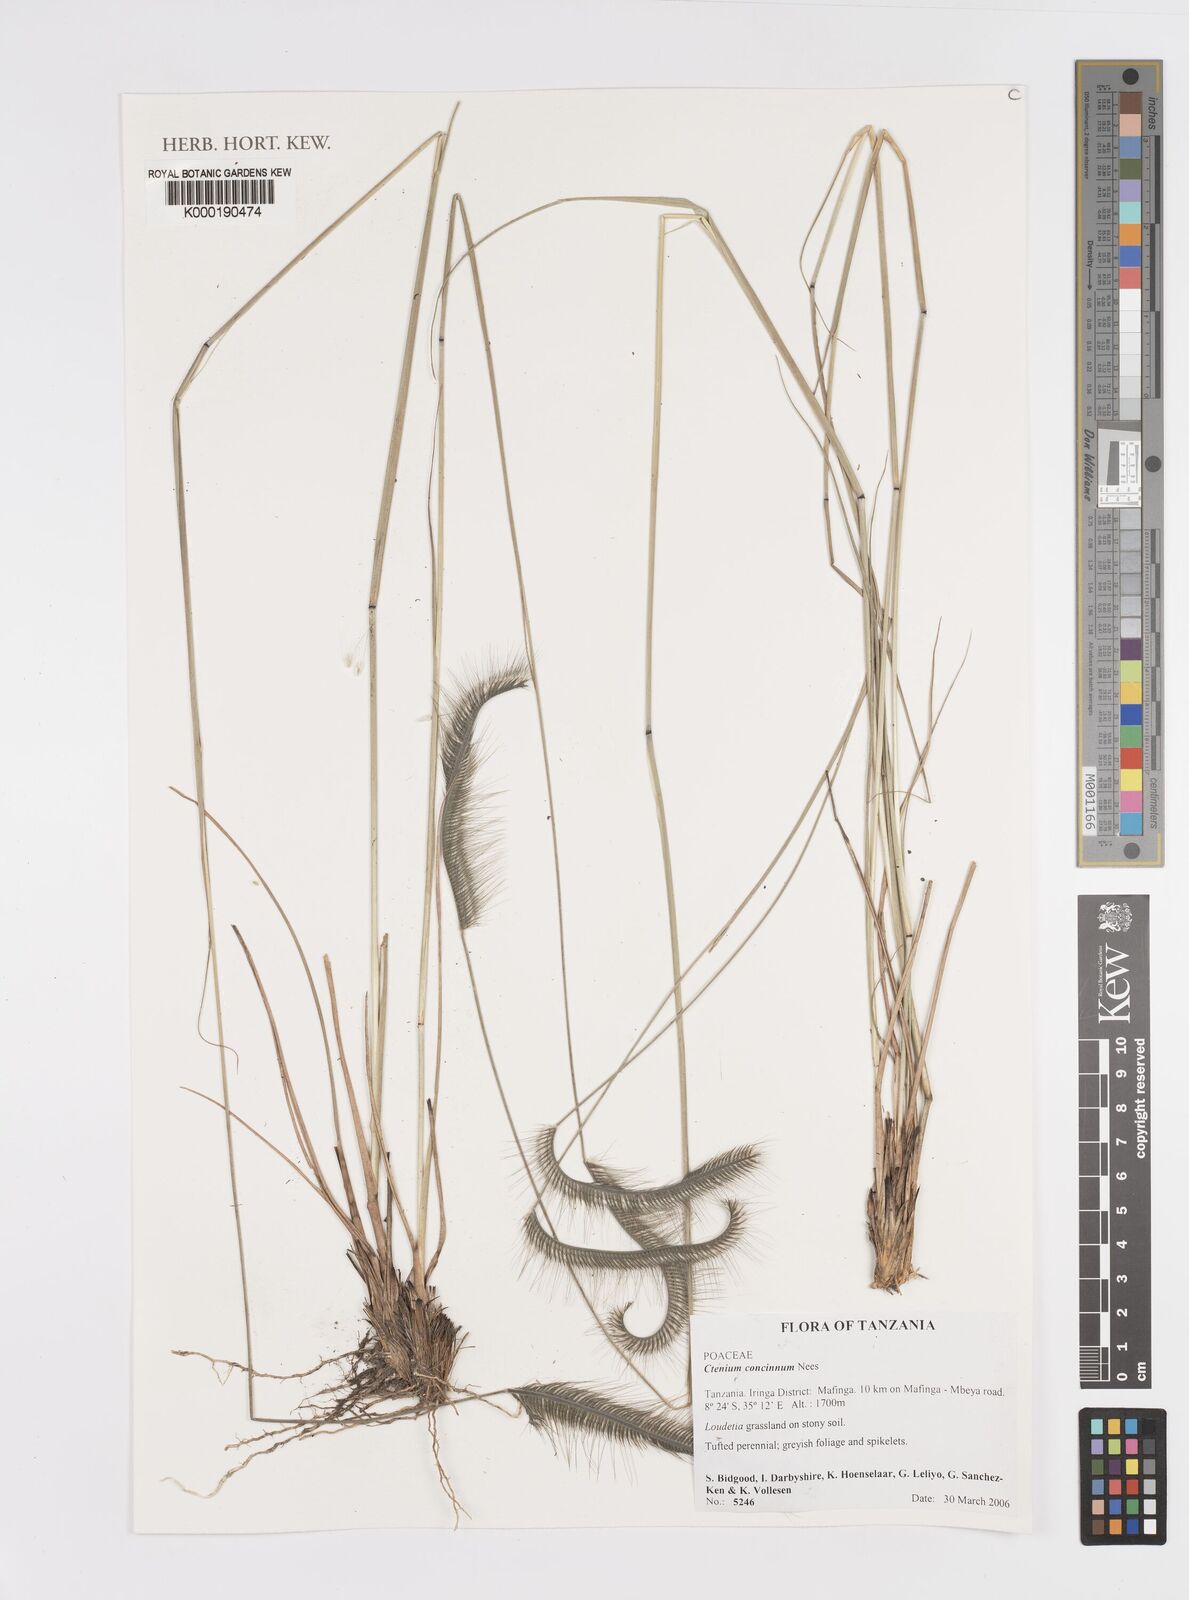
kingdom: Plantae
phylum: Tracheophyta
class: Liliopsida
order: Poales
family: Poaceae
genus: Ctenium
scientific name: Ctenium concinnum
